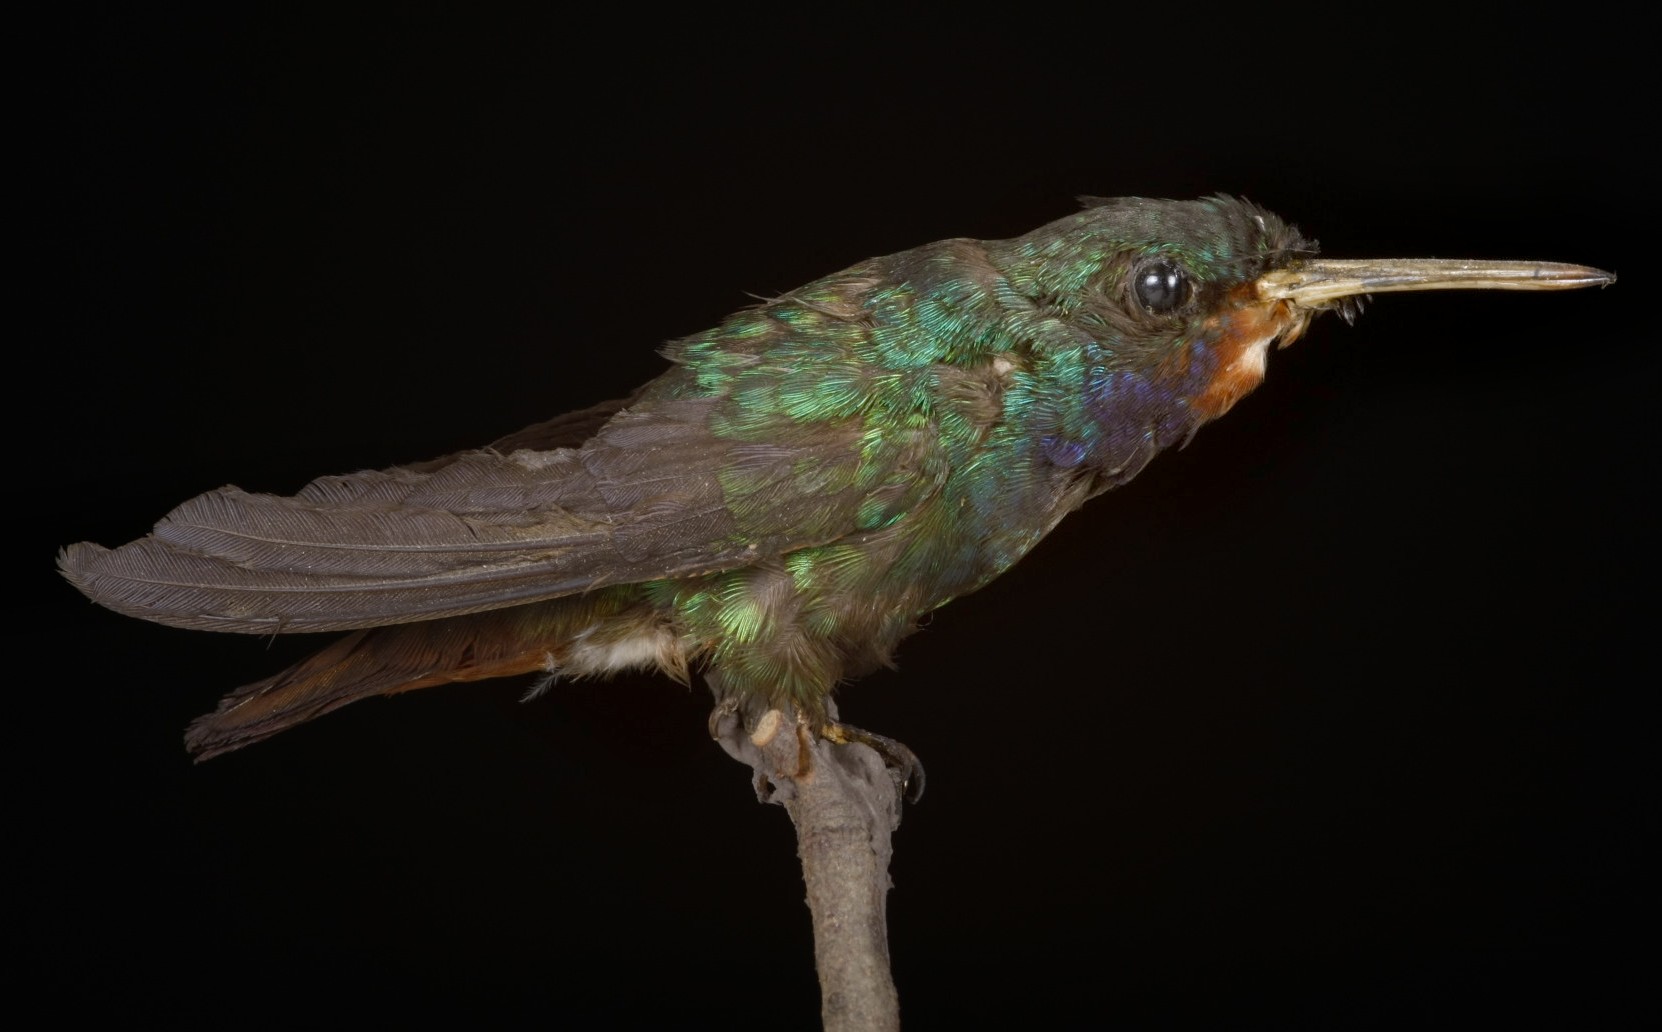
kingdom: Animalia
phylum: Chordata
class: Aves
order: Apodiformes
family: Trochilidae
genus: Hylocharis
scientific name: Hylocharis sapphirina
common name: Rufous-throated sapphire
